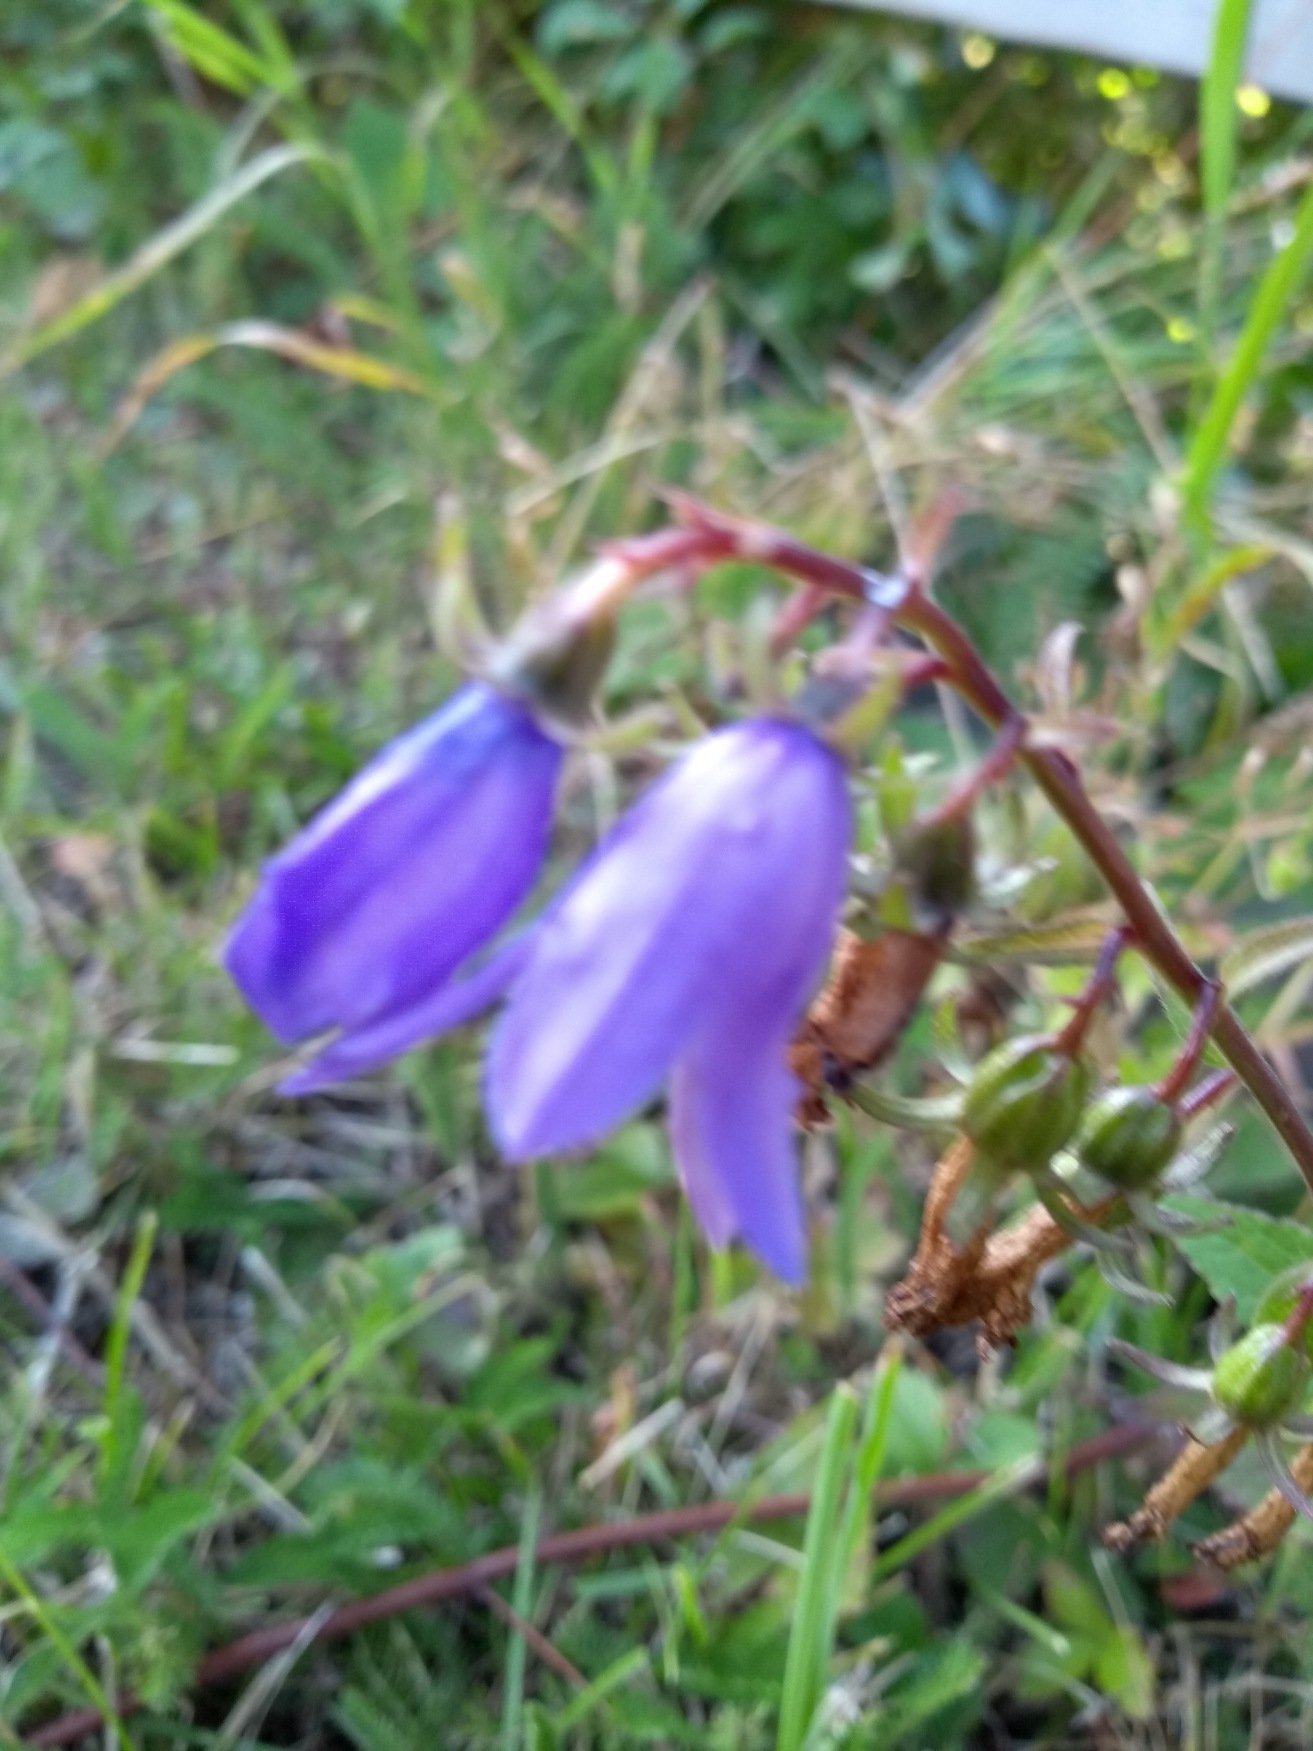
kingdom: Plantae
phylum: Tracheophyta
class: Magnoliopsida
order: Asterales
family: Campanulaceae
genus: Campanula
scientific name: Campanula rapunculoides
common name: Ensidig klokke
